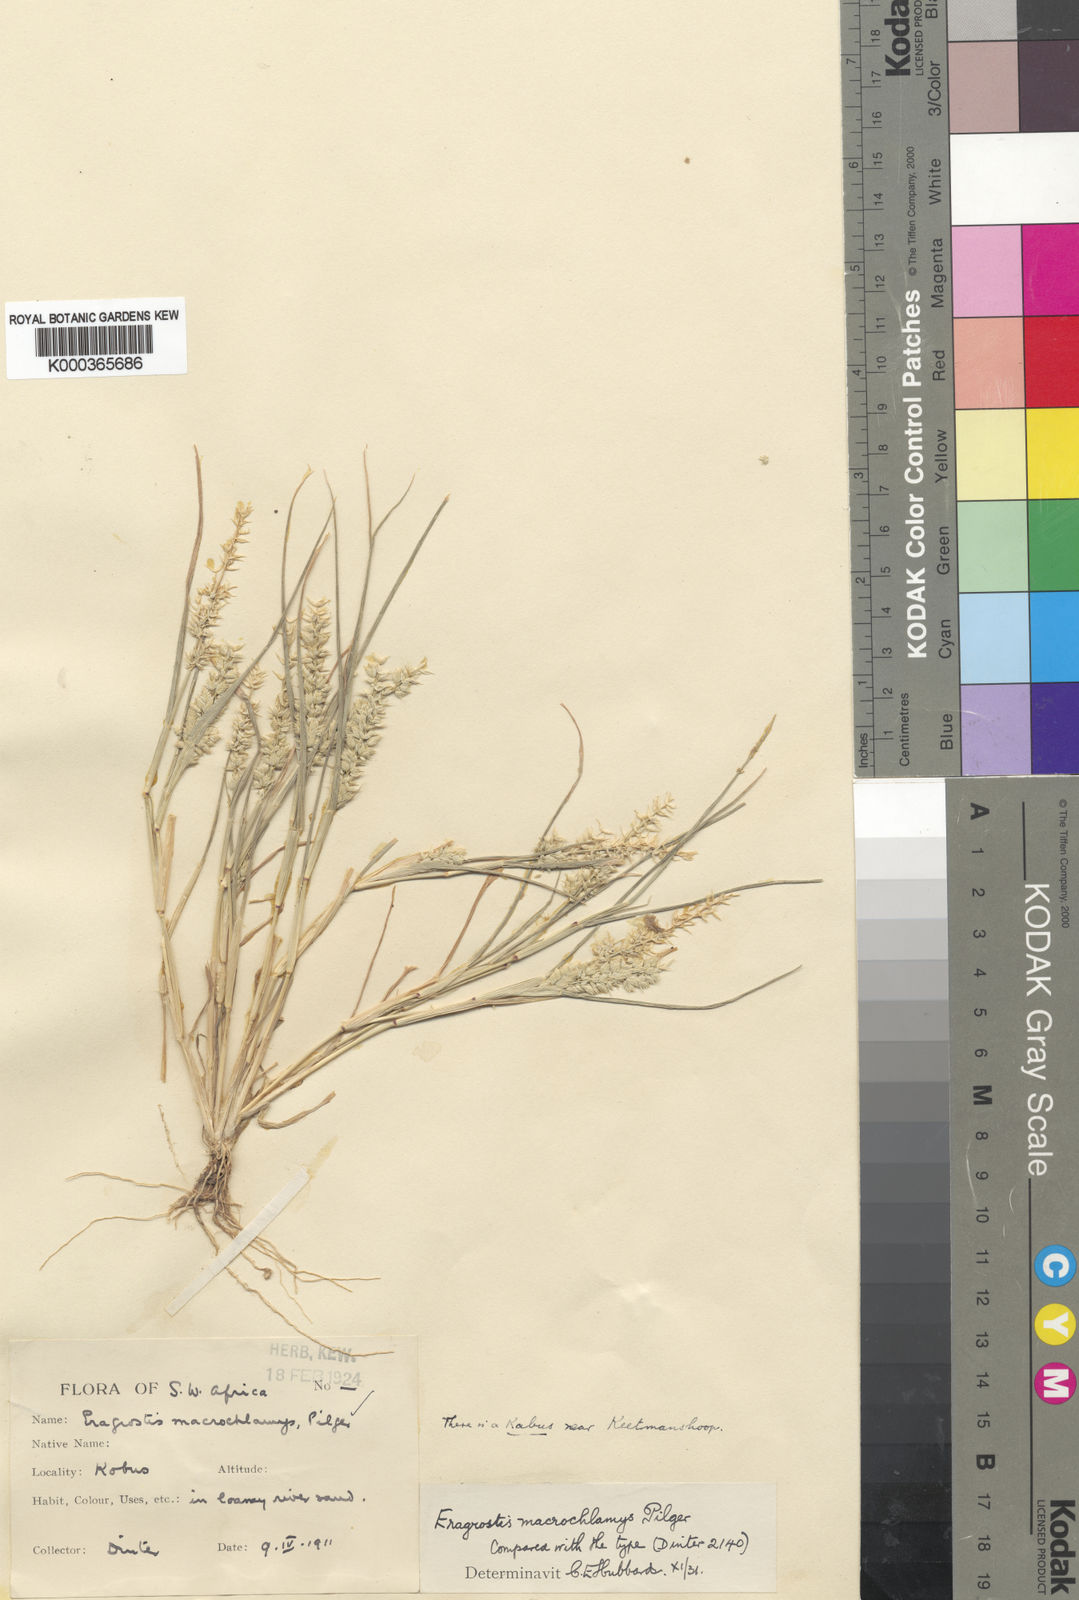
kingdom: Plantae
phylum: Tracheophyta
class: Liliopsida
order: Poales
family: Poaceae
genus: Eragrostis
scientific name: Eragrostis macrochlamys
